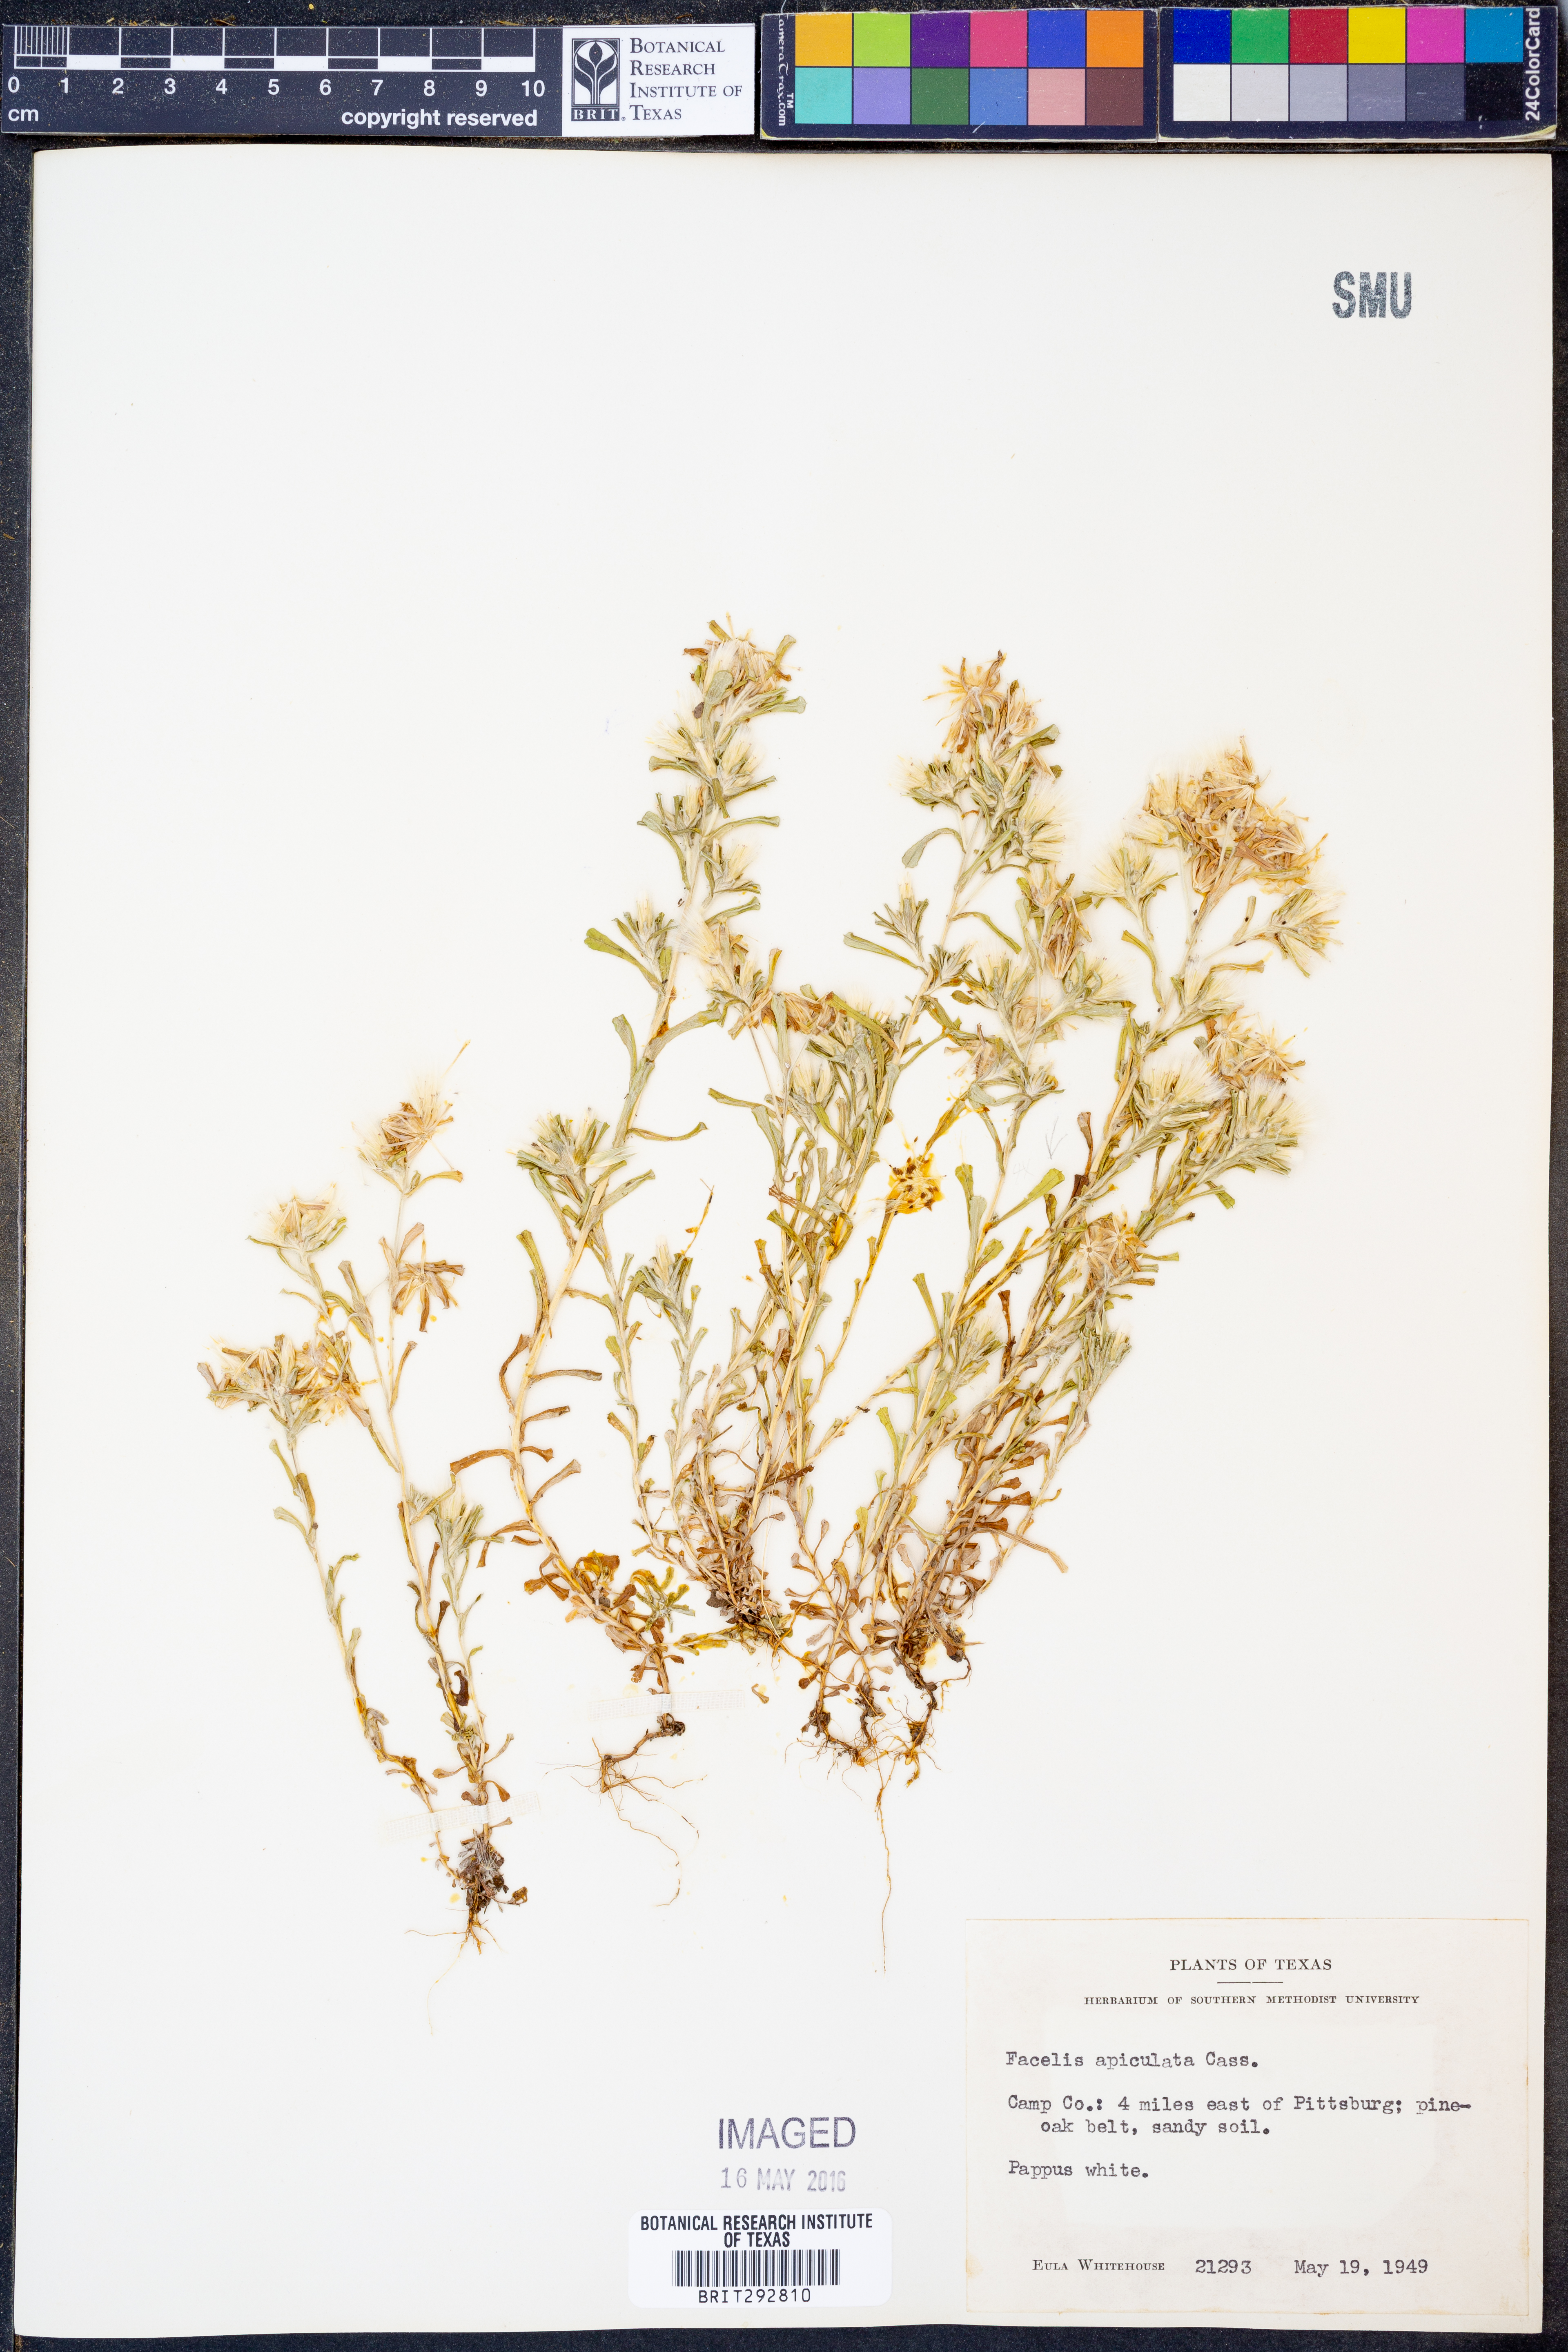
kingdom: Plantae
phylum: Tracheophyta
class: Magnoliopsida
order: Asterales
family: Asteraceae
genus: Facelis
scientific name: Facelis retusa
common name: Annual trampweed
